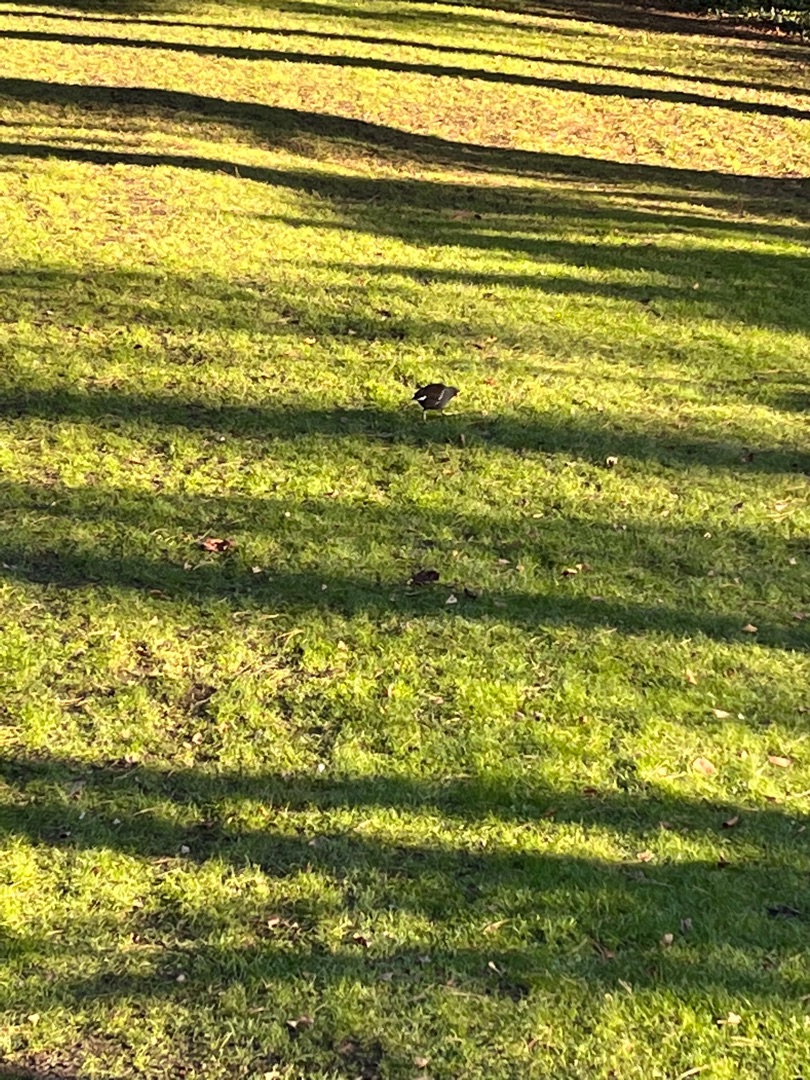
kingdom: Animalia
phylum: Chordata
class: Aves
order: Gruiformes
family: Rallidae
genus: Gallinula
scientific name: Gallinula chloropus
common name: Grønbenet rørhøne
